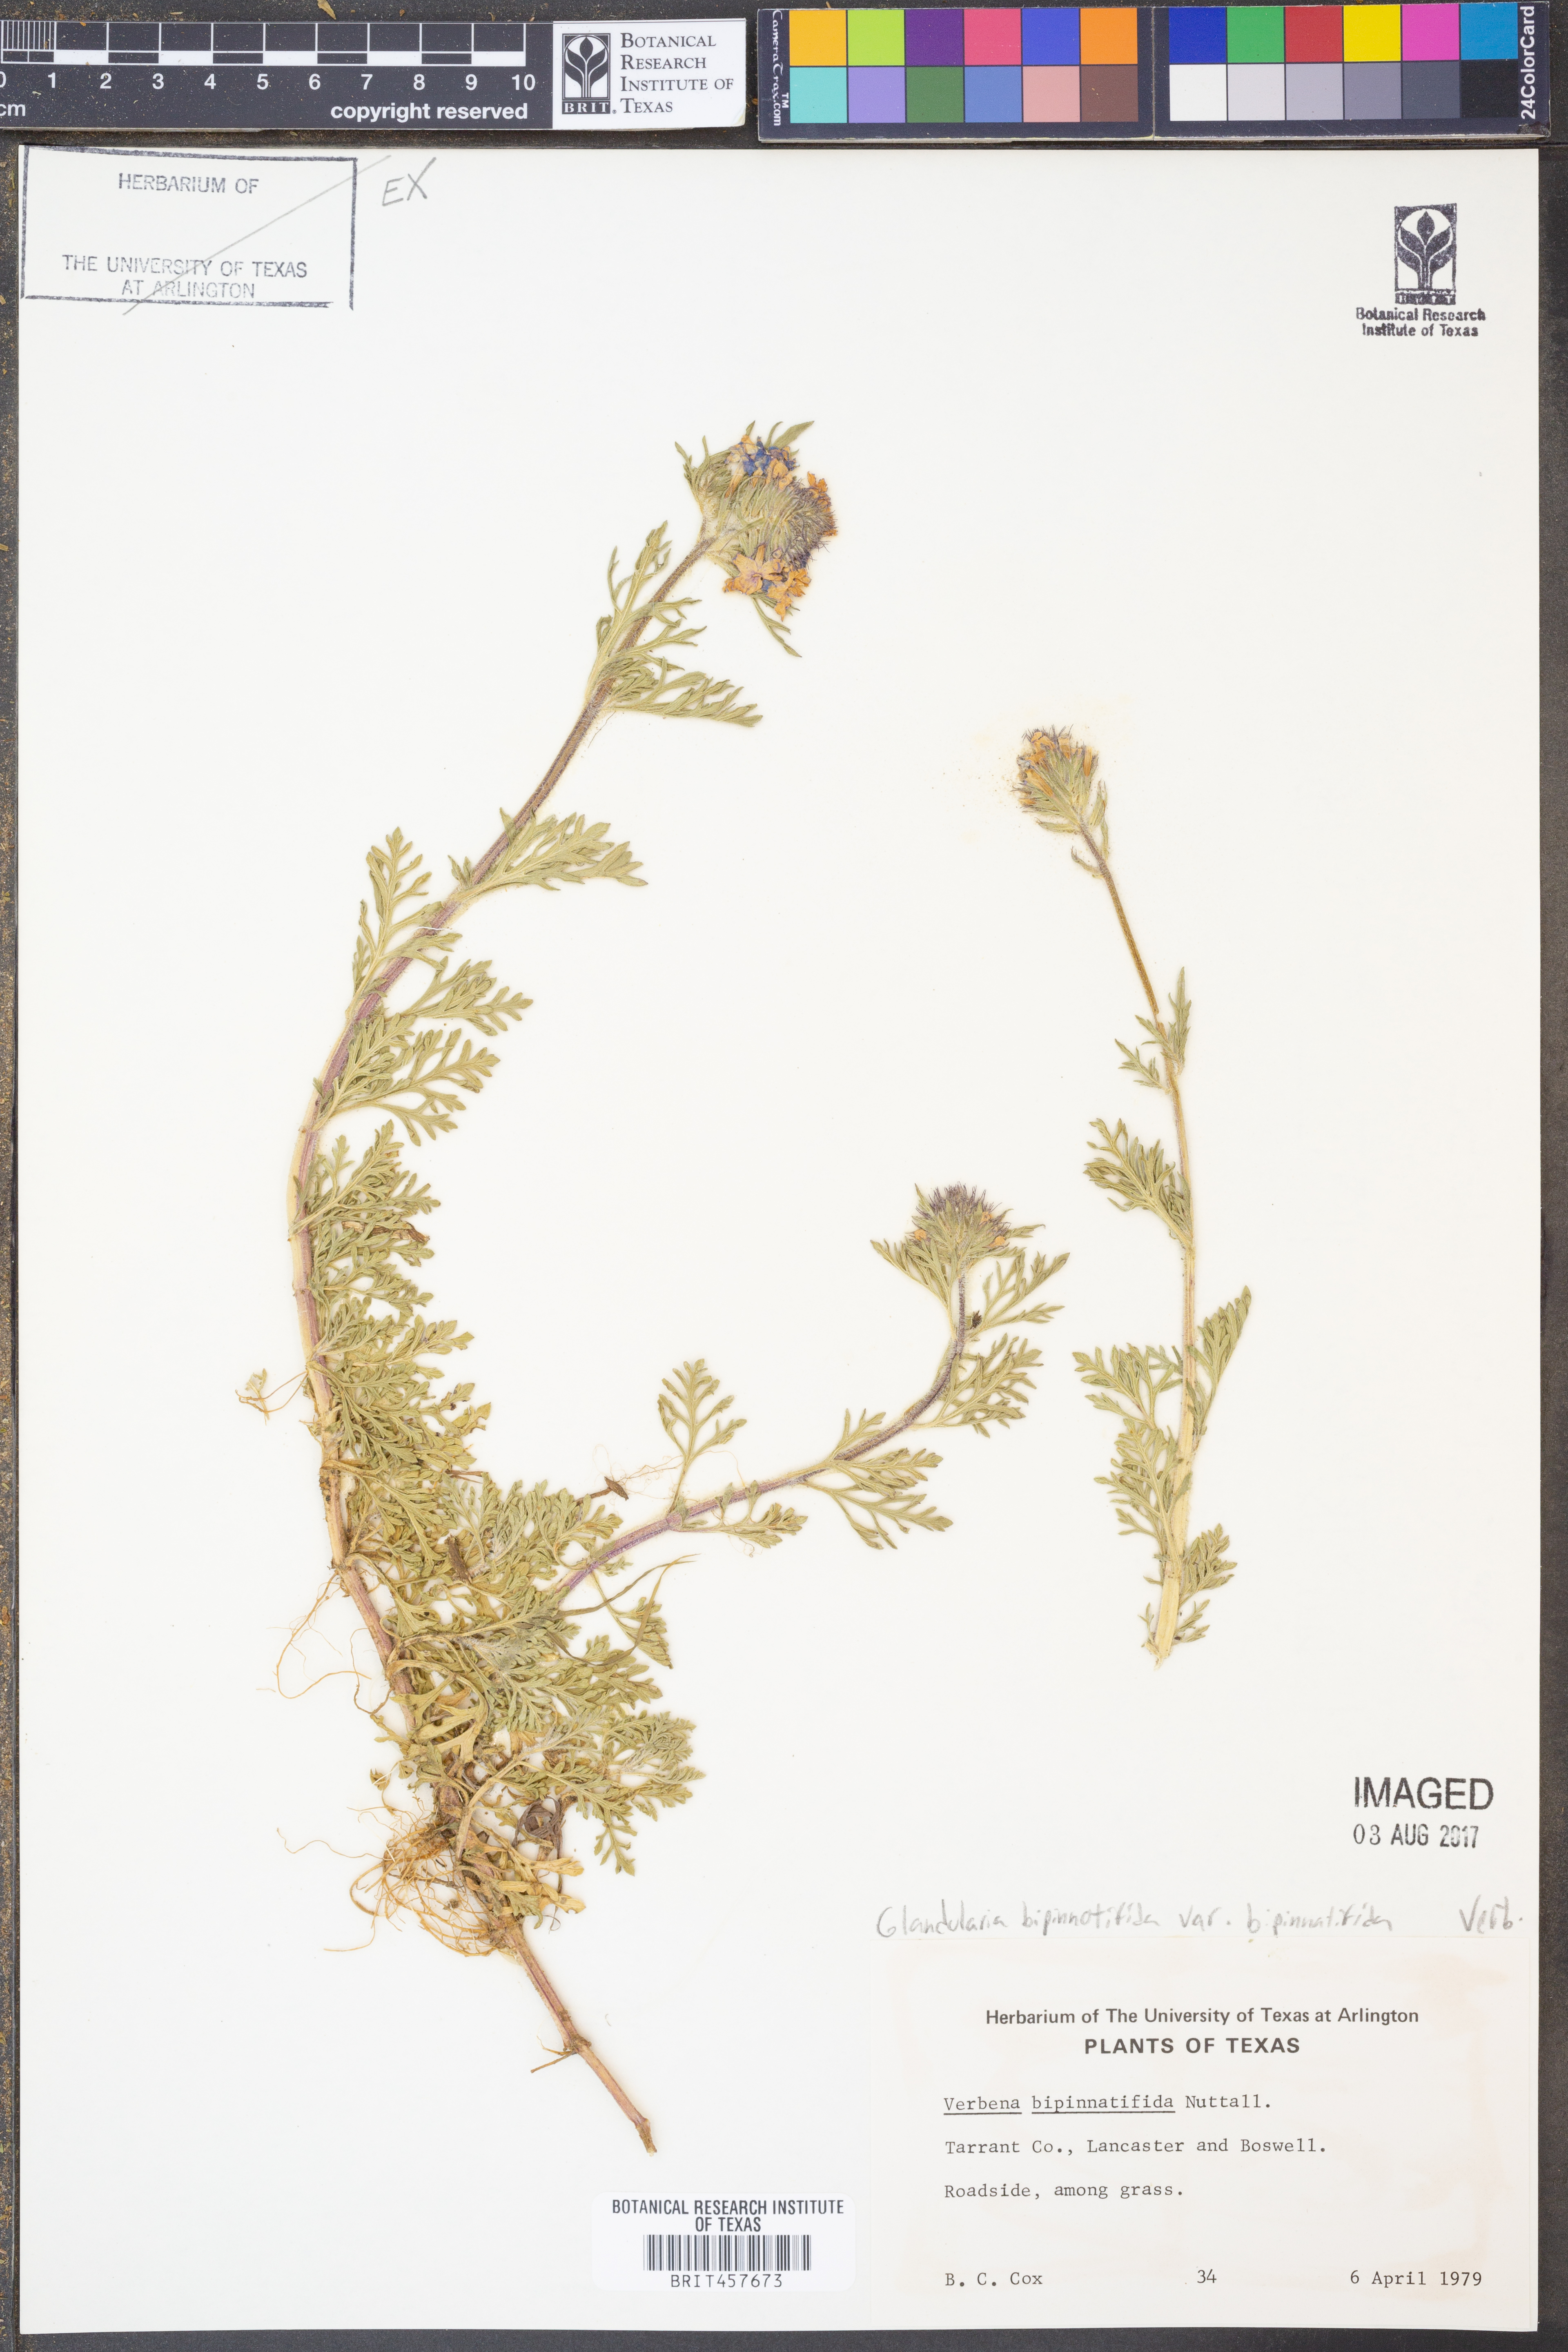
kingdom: Plantae
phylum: Tracheophyta
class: Magnoliopsida
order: Lamiales
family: Verbenaceae
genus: Verbena
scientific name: Verbena bipinnatifida
